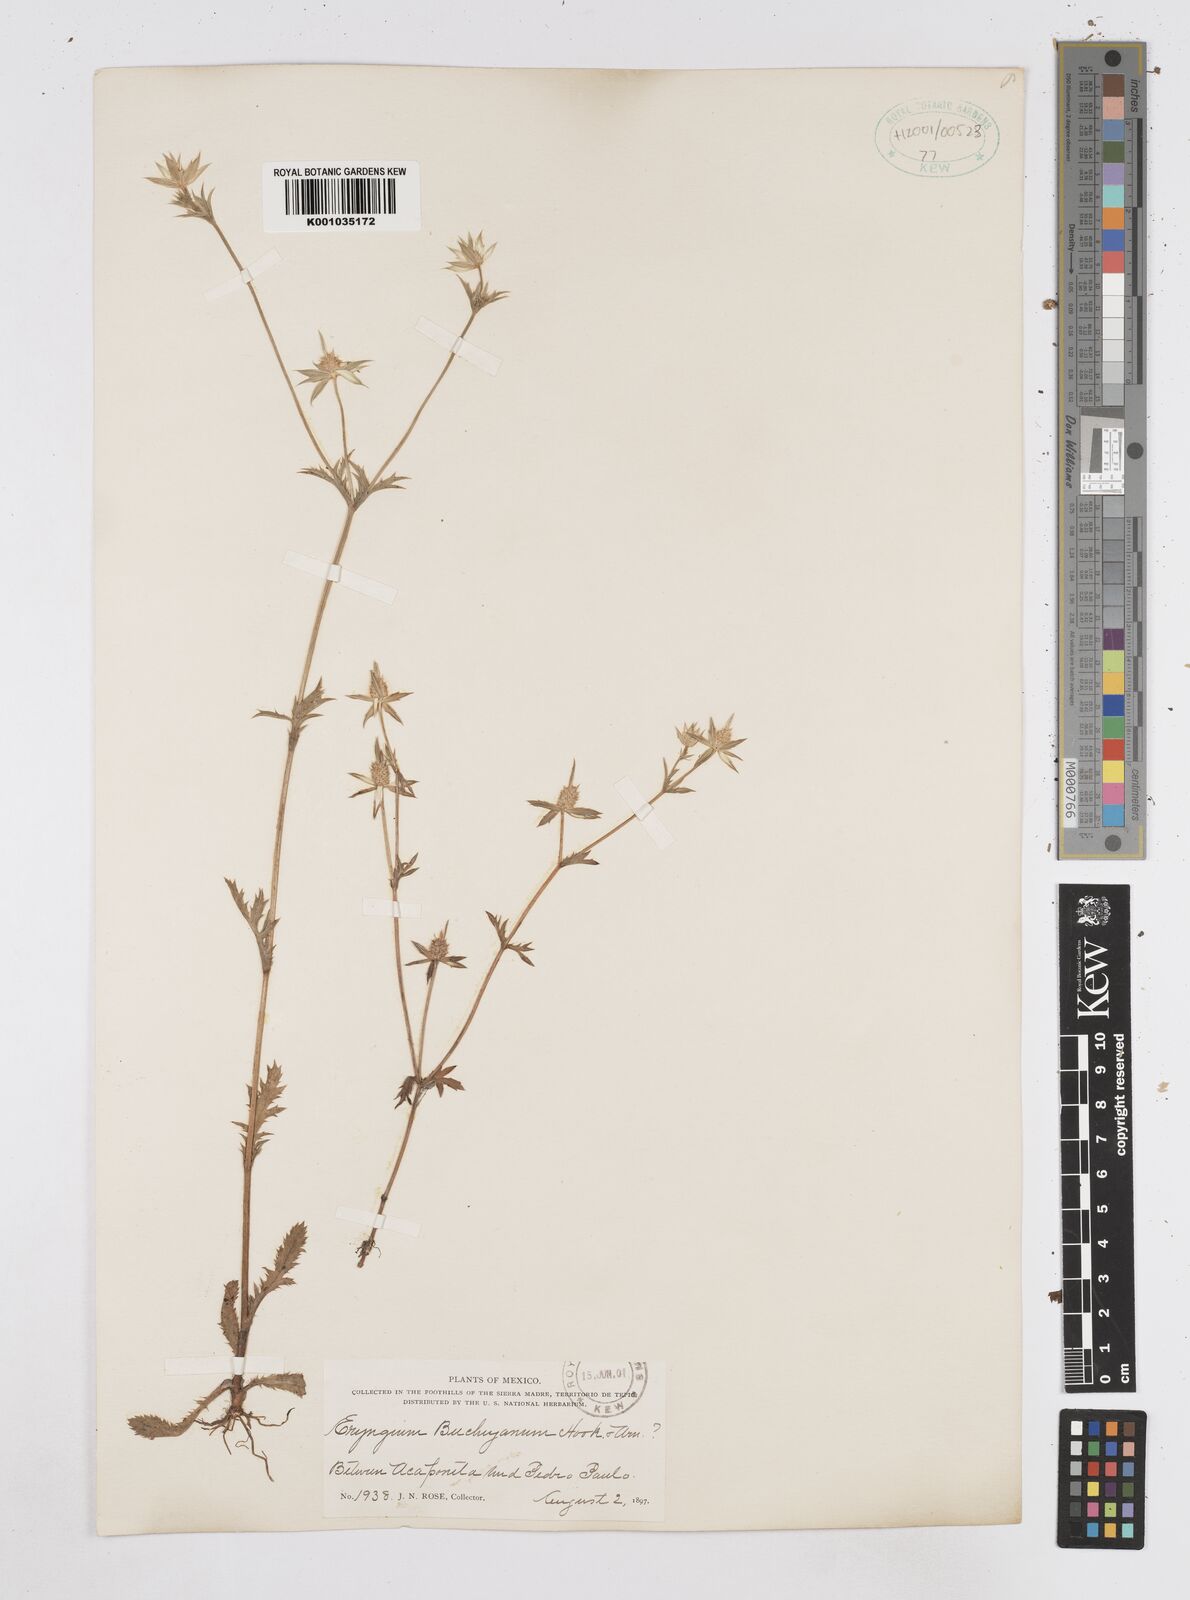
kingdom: Plantae
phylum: Tracheophyta
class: Magnoliopsida
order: Apiales
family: Apiaceae
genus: Eryngium
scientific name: Eryngium beecheyanum
